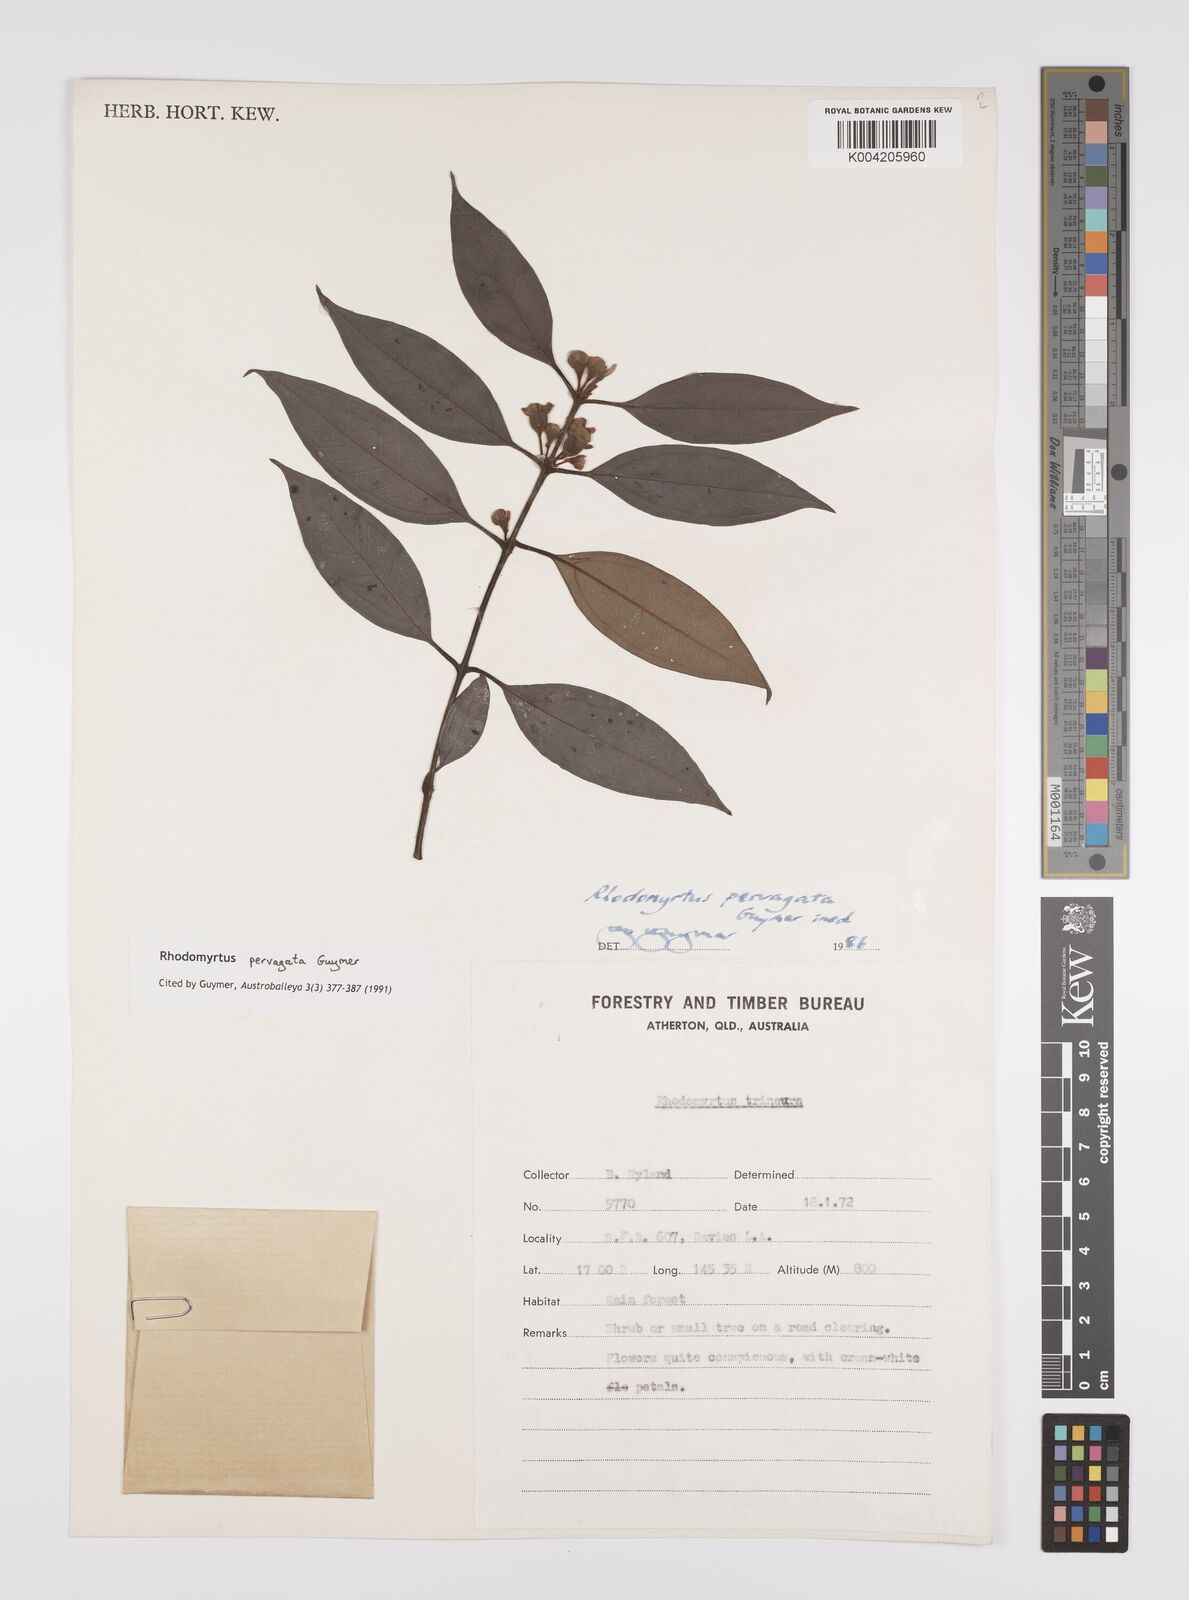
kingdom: Plantae
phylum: Tracheophyta
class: Magnoliopsida
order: Myrtales
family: Myrtaceae
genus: Rhodomyrtus
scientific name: Rhodomyrtus pervagata
